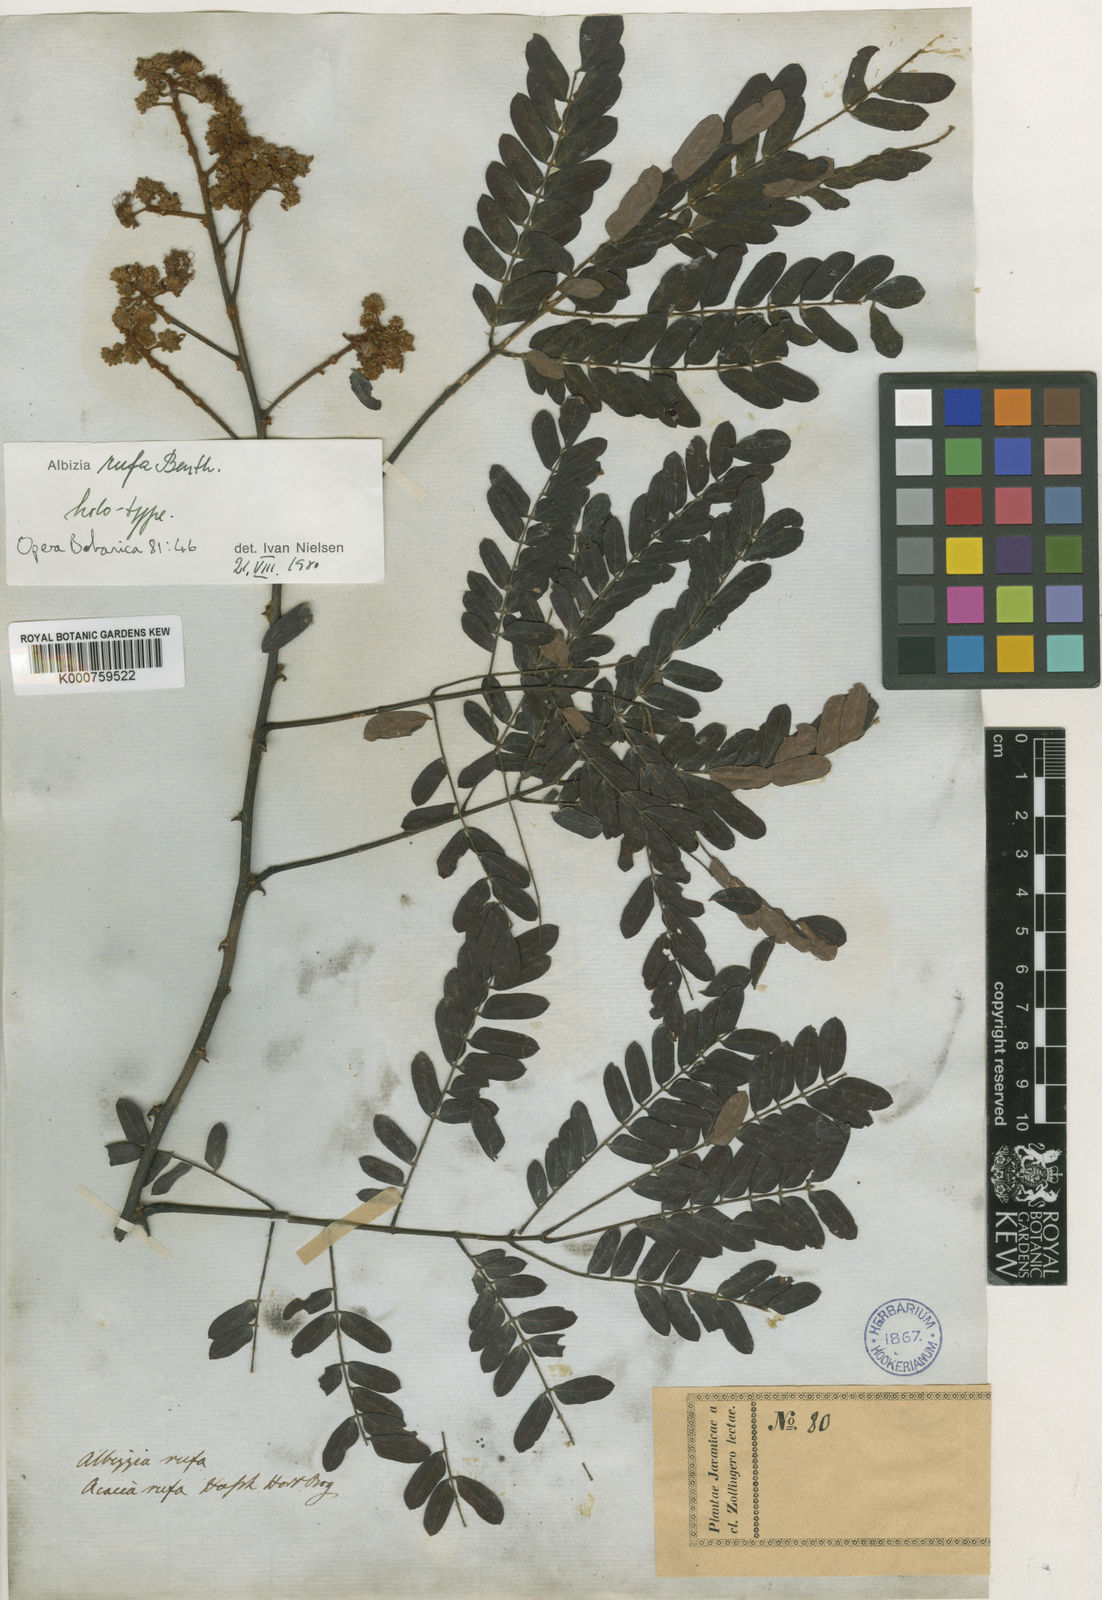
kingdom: Plantae
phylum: Tracheophyta
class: Magnoliopsida
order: Fabales
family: Fabaceae
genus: Albizia
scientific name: Albizia rufa
